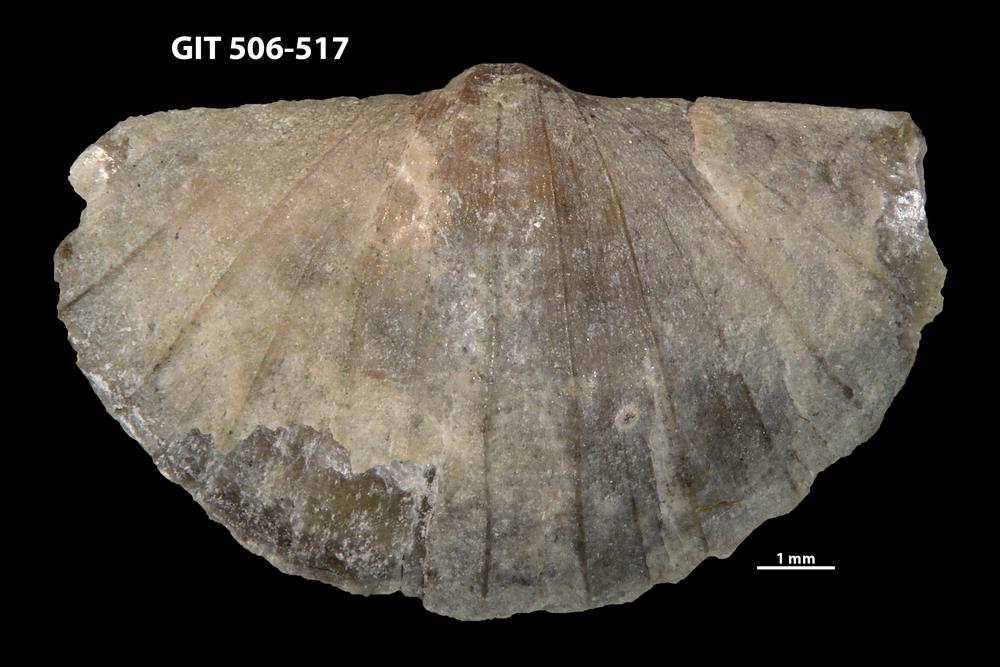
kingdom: Animalia
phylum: Brachiopoda
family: Oldhaminidae
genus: Eoplectodonta
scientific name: Eoplectodonta duvalii
